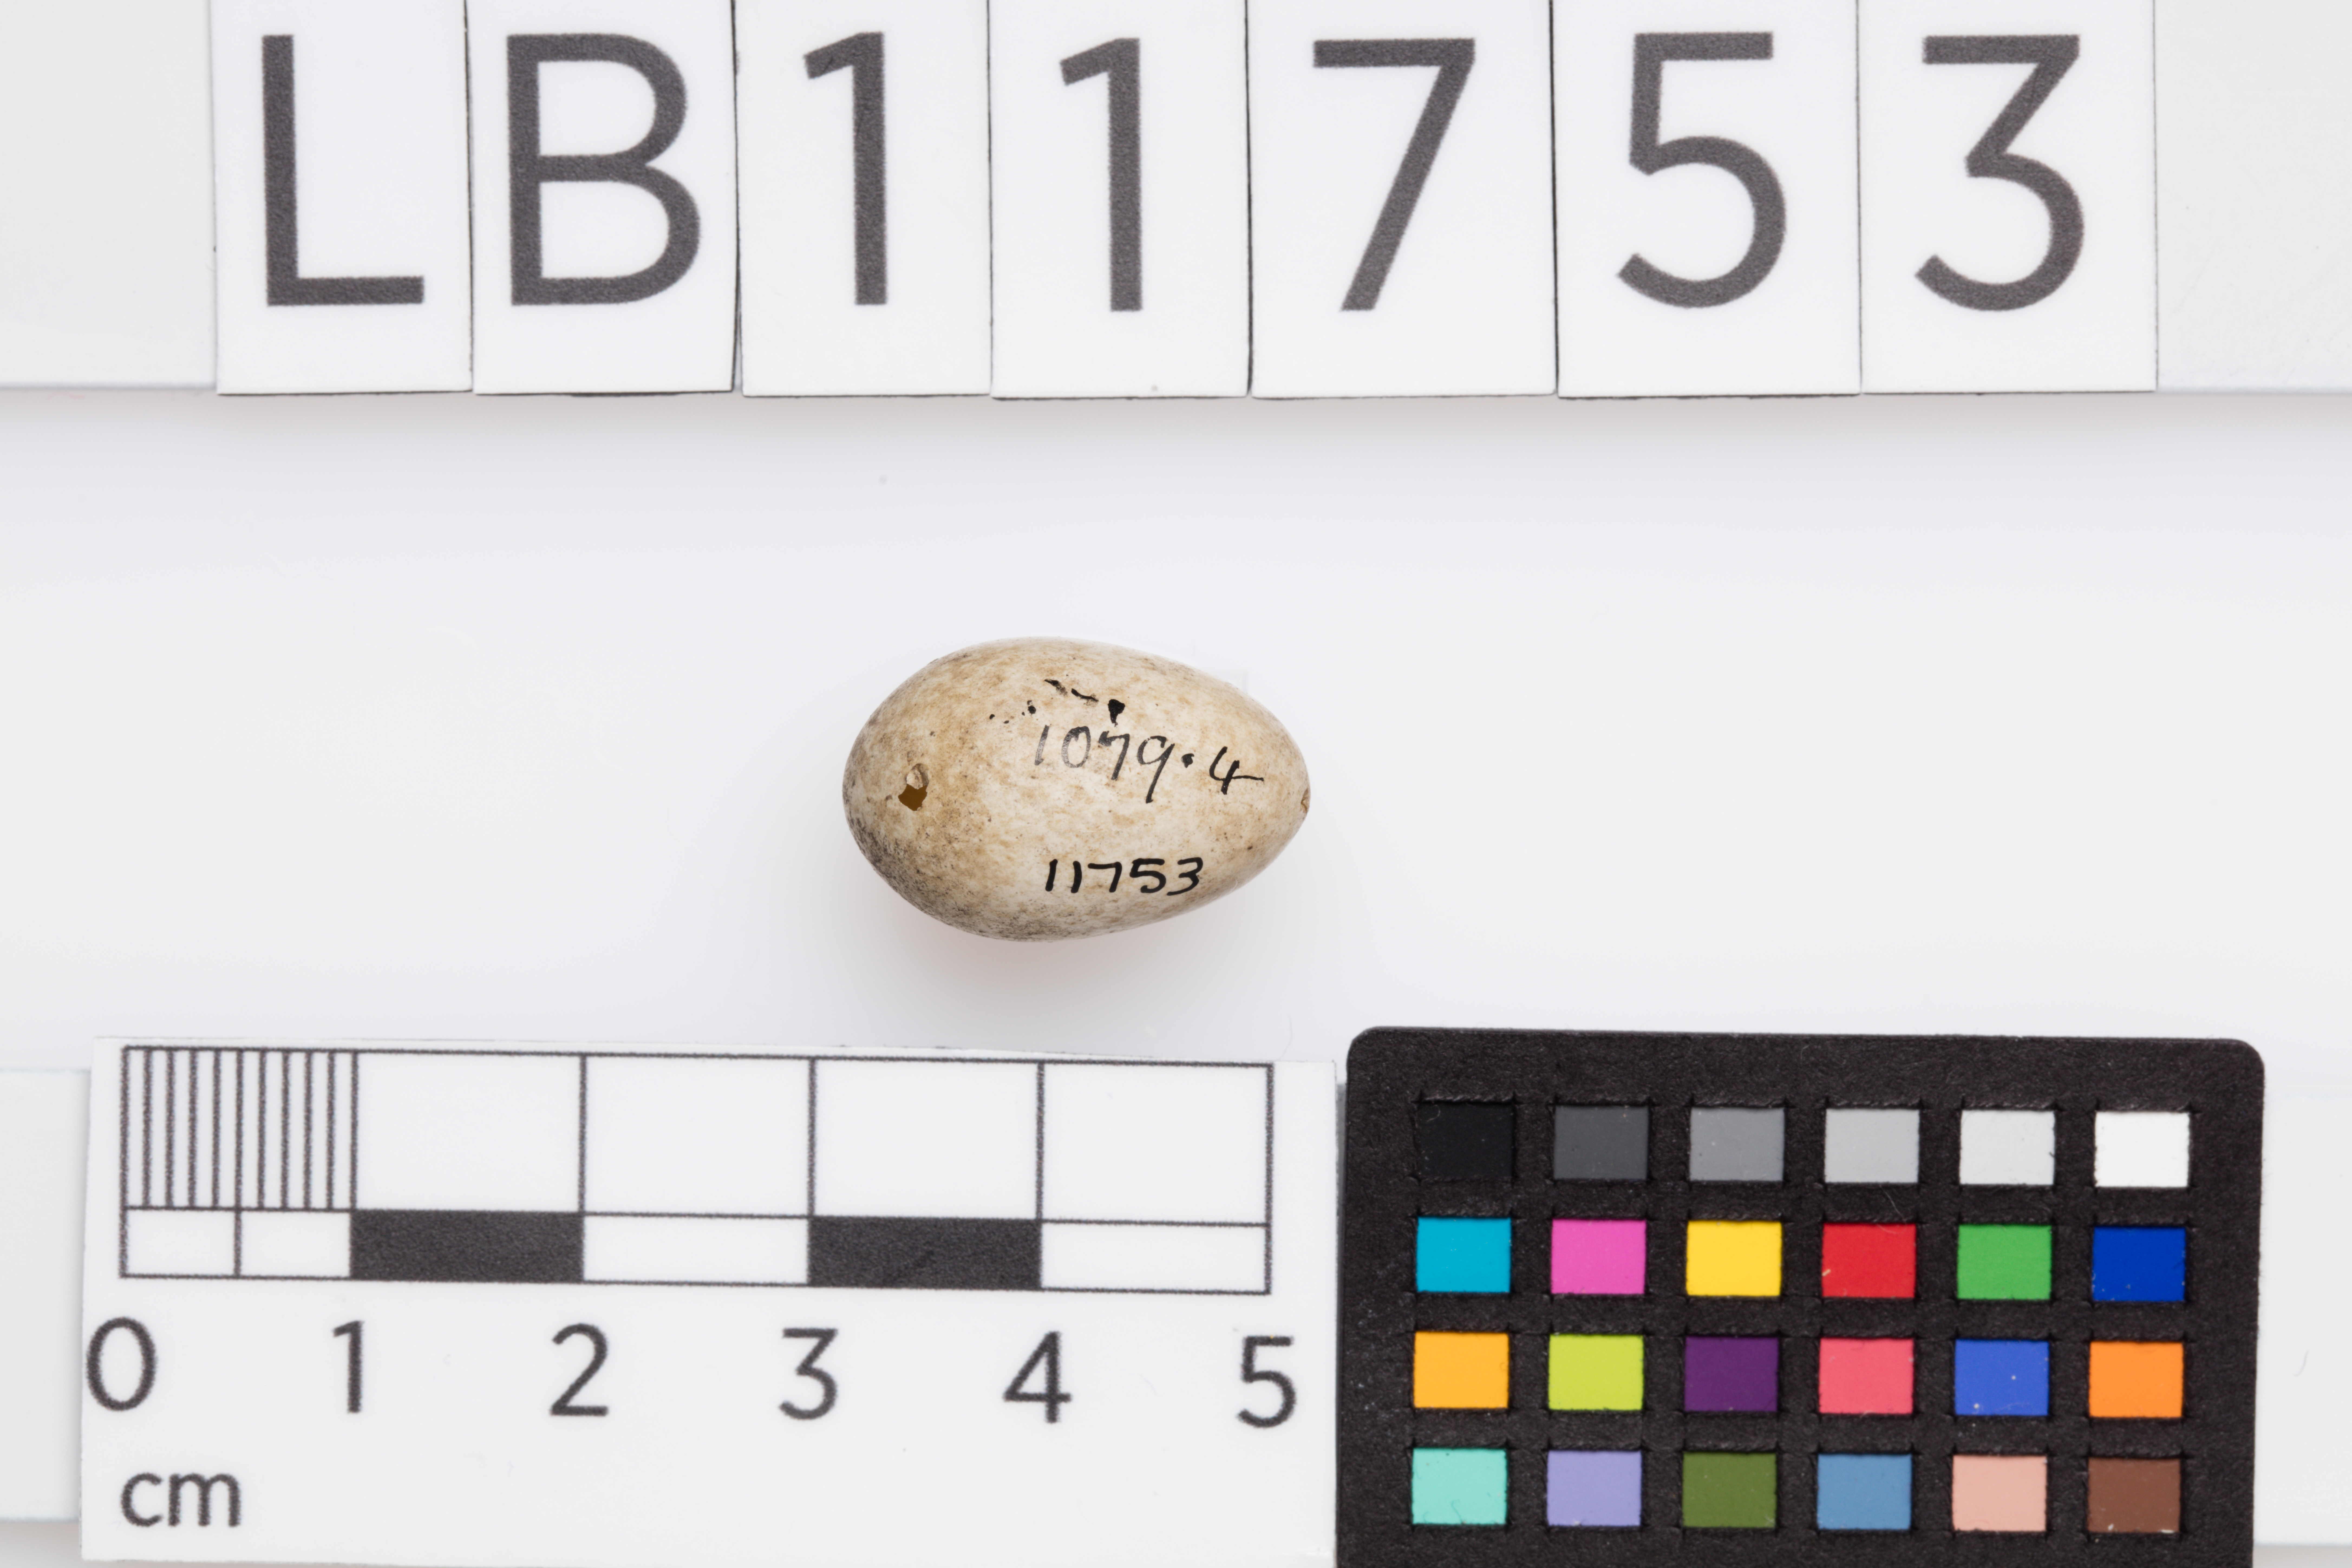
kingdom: Animalia
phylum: Chordata
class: Aves
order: Passeriformes
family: Sylviidae
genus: Sylvia
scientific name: Sylvia communis
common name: Common whitethroat
